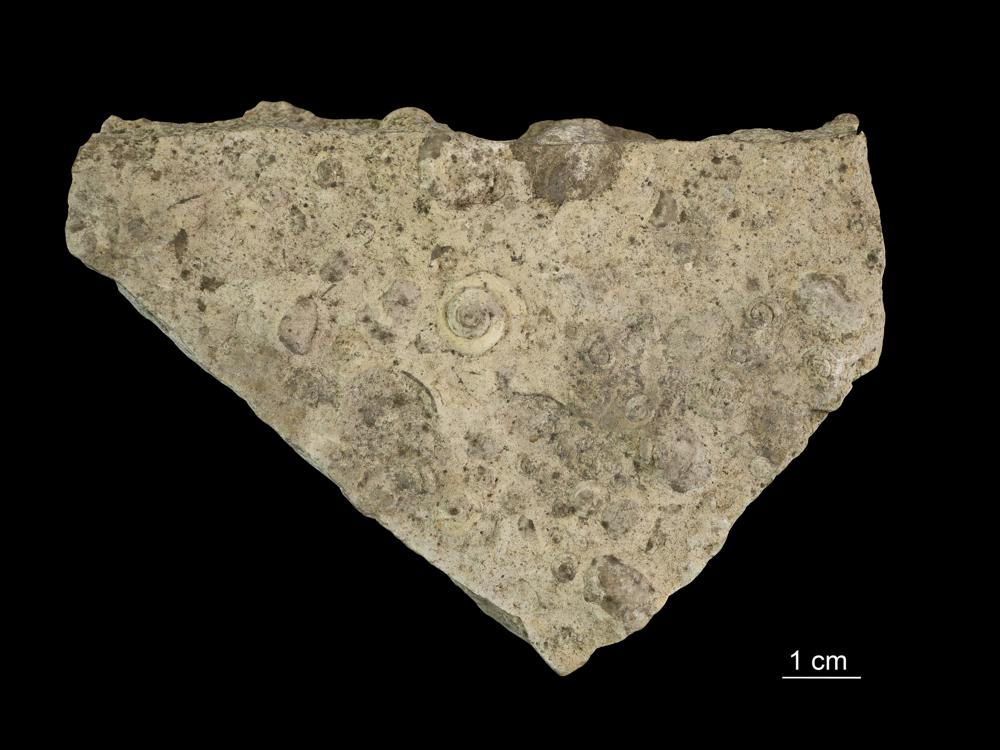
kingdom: Animalia
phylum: Mollusca
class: Gastropoda
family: Pycnomphalidae
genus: Pycnomphalus
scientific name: Pycnomphalus Platyschisma helicites
